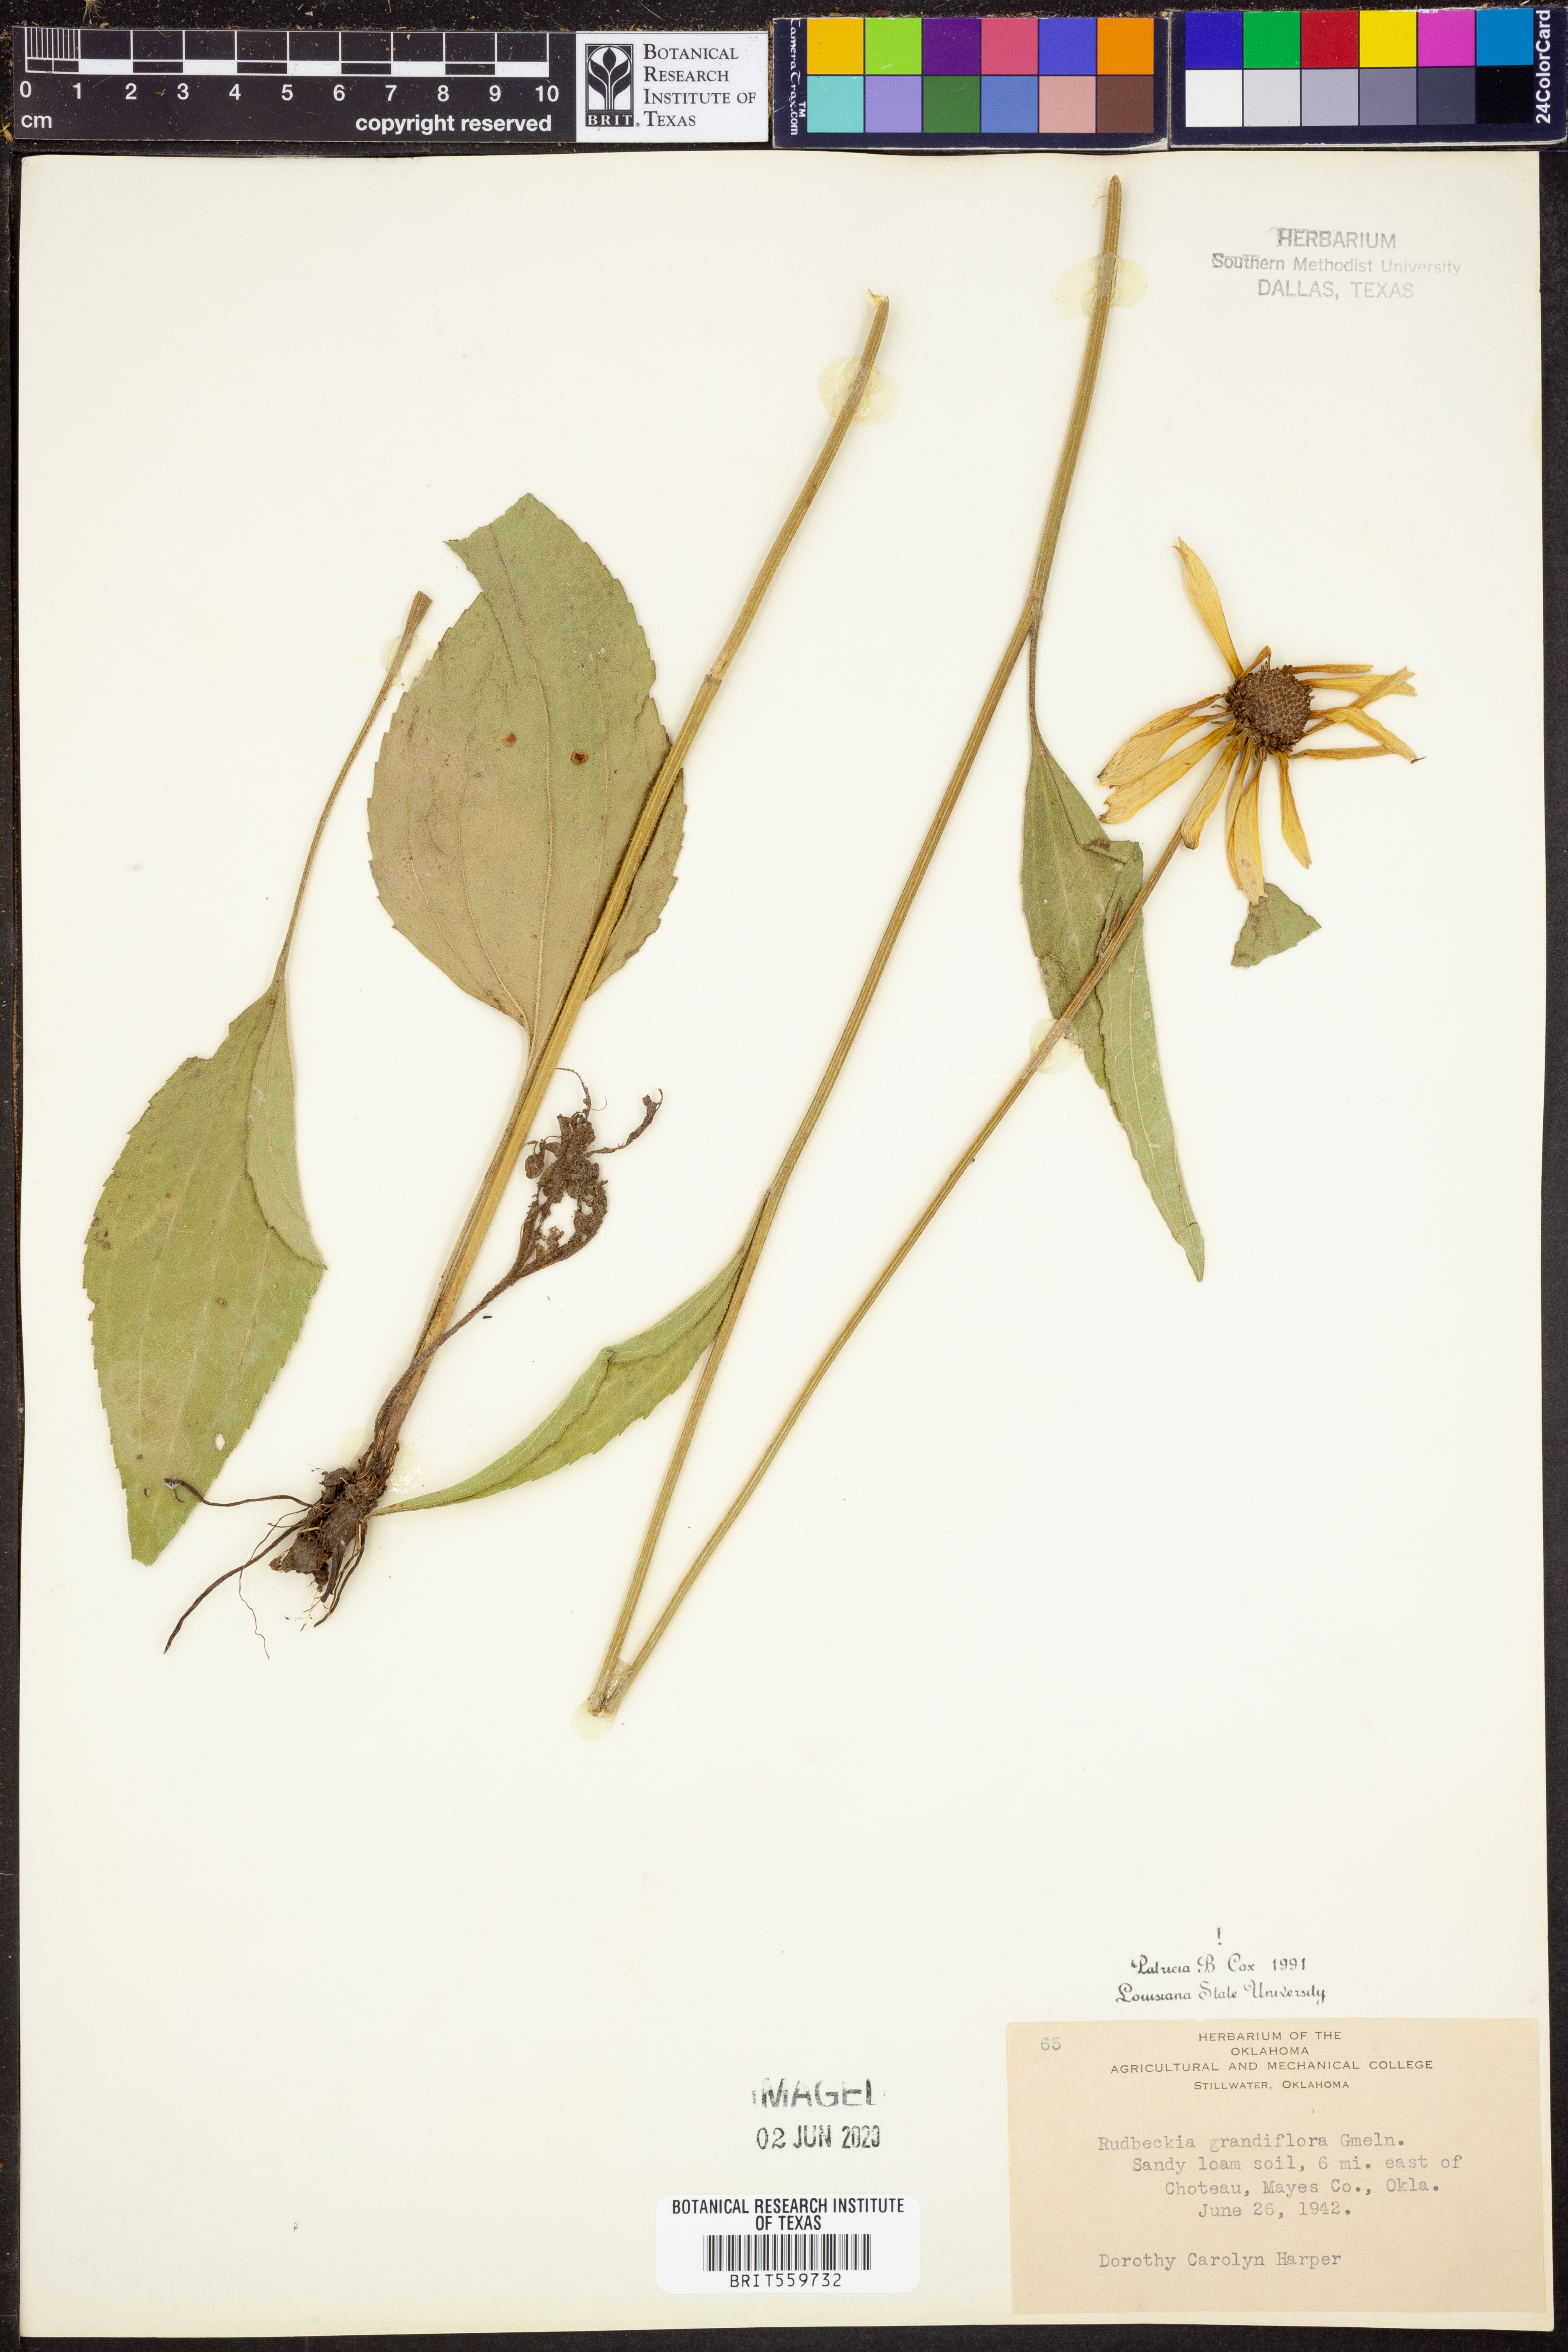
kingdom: Plantae
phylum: Tracheophyta
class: Magnoliopsida
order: Asterales
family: Asteraceae
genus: Rudbeckia
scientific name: Rudbeckia grandiflora
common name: Large-flowered coneflower
